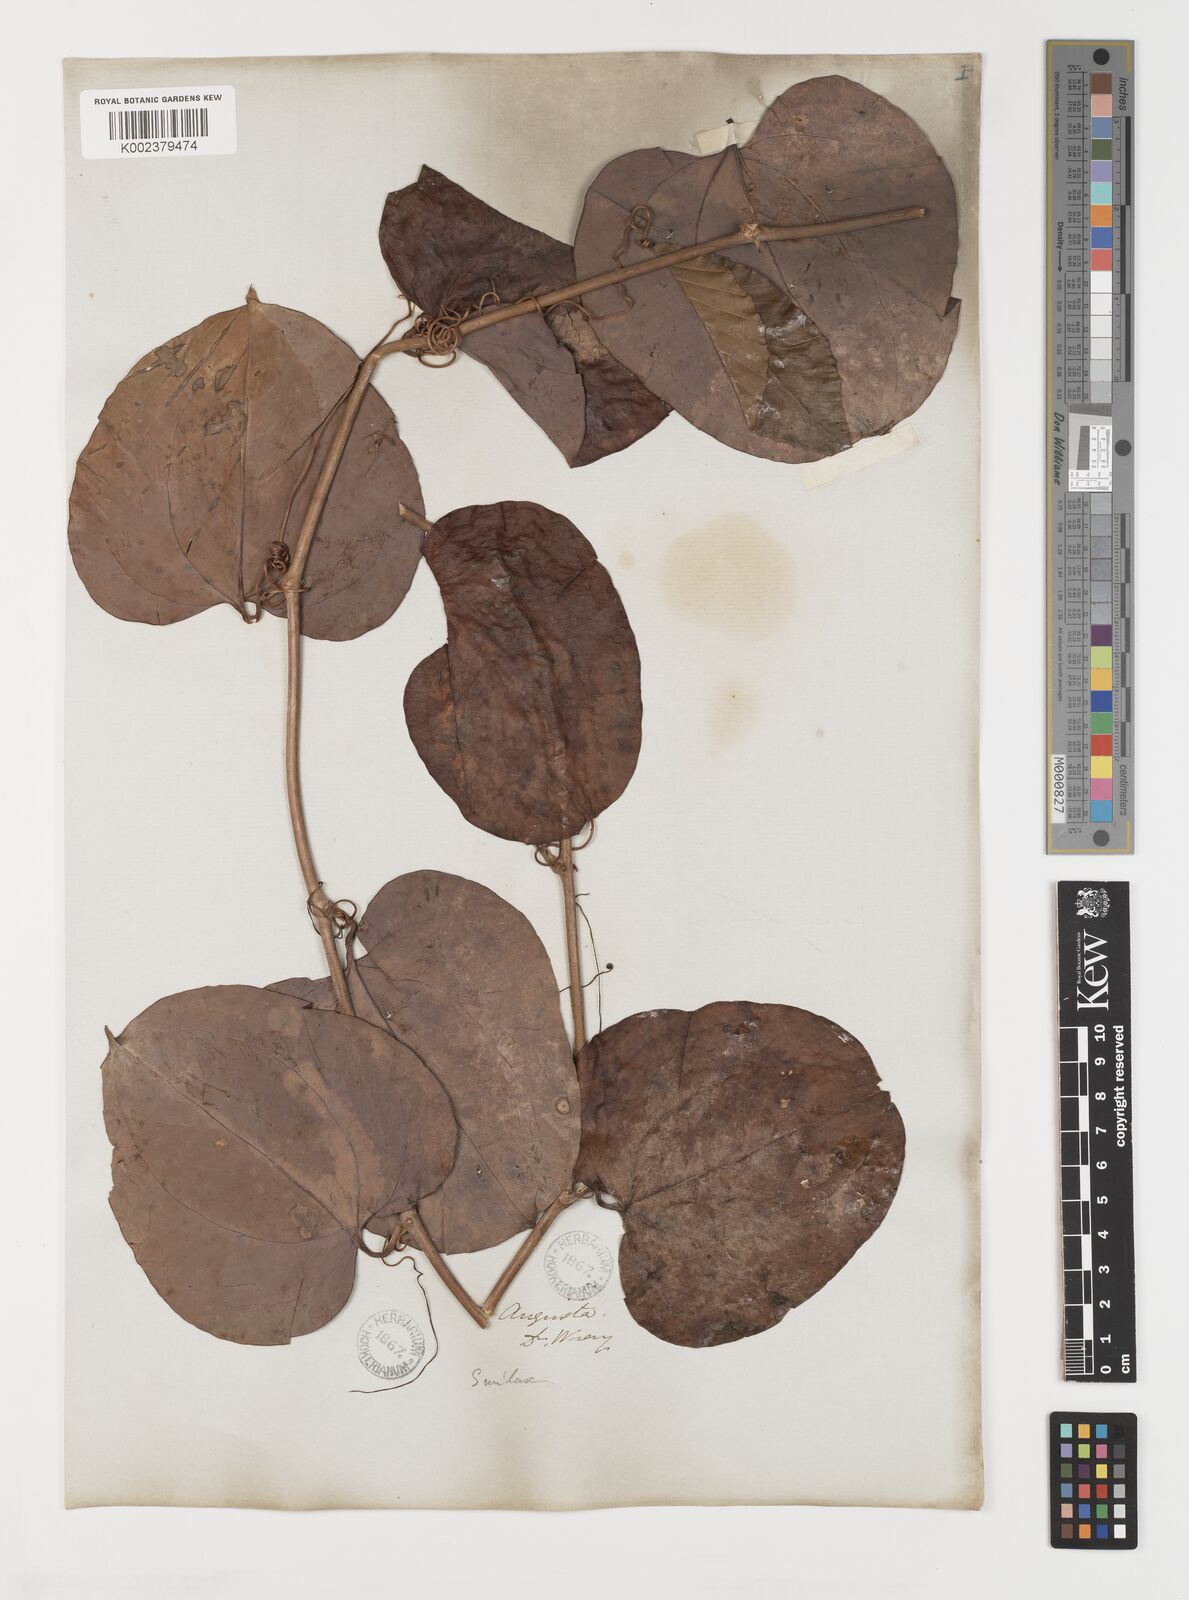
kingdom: Plantae
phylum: Tracheophyta
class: Liliopsida
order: Liliales
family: Smilacaceae
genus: Smilax
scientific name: Smilax
